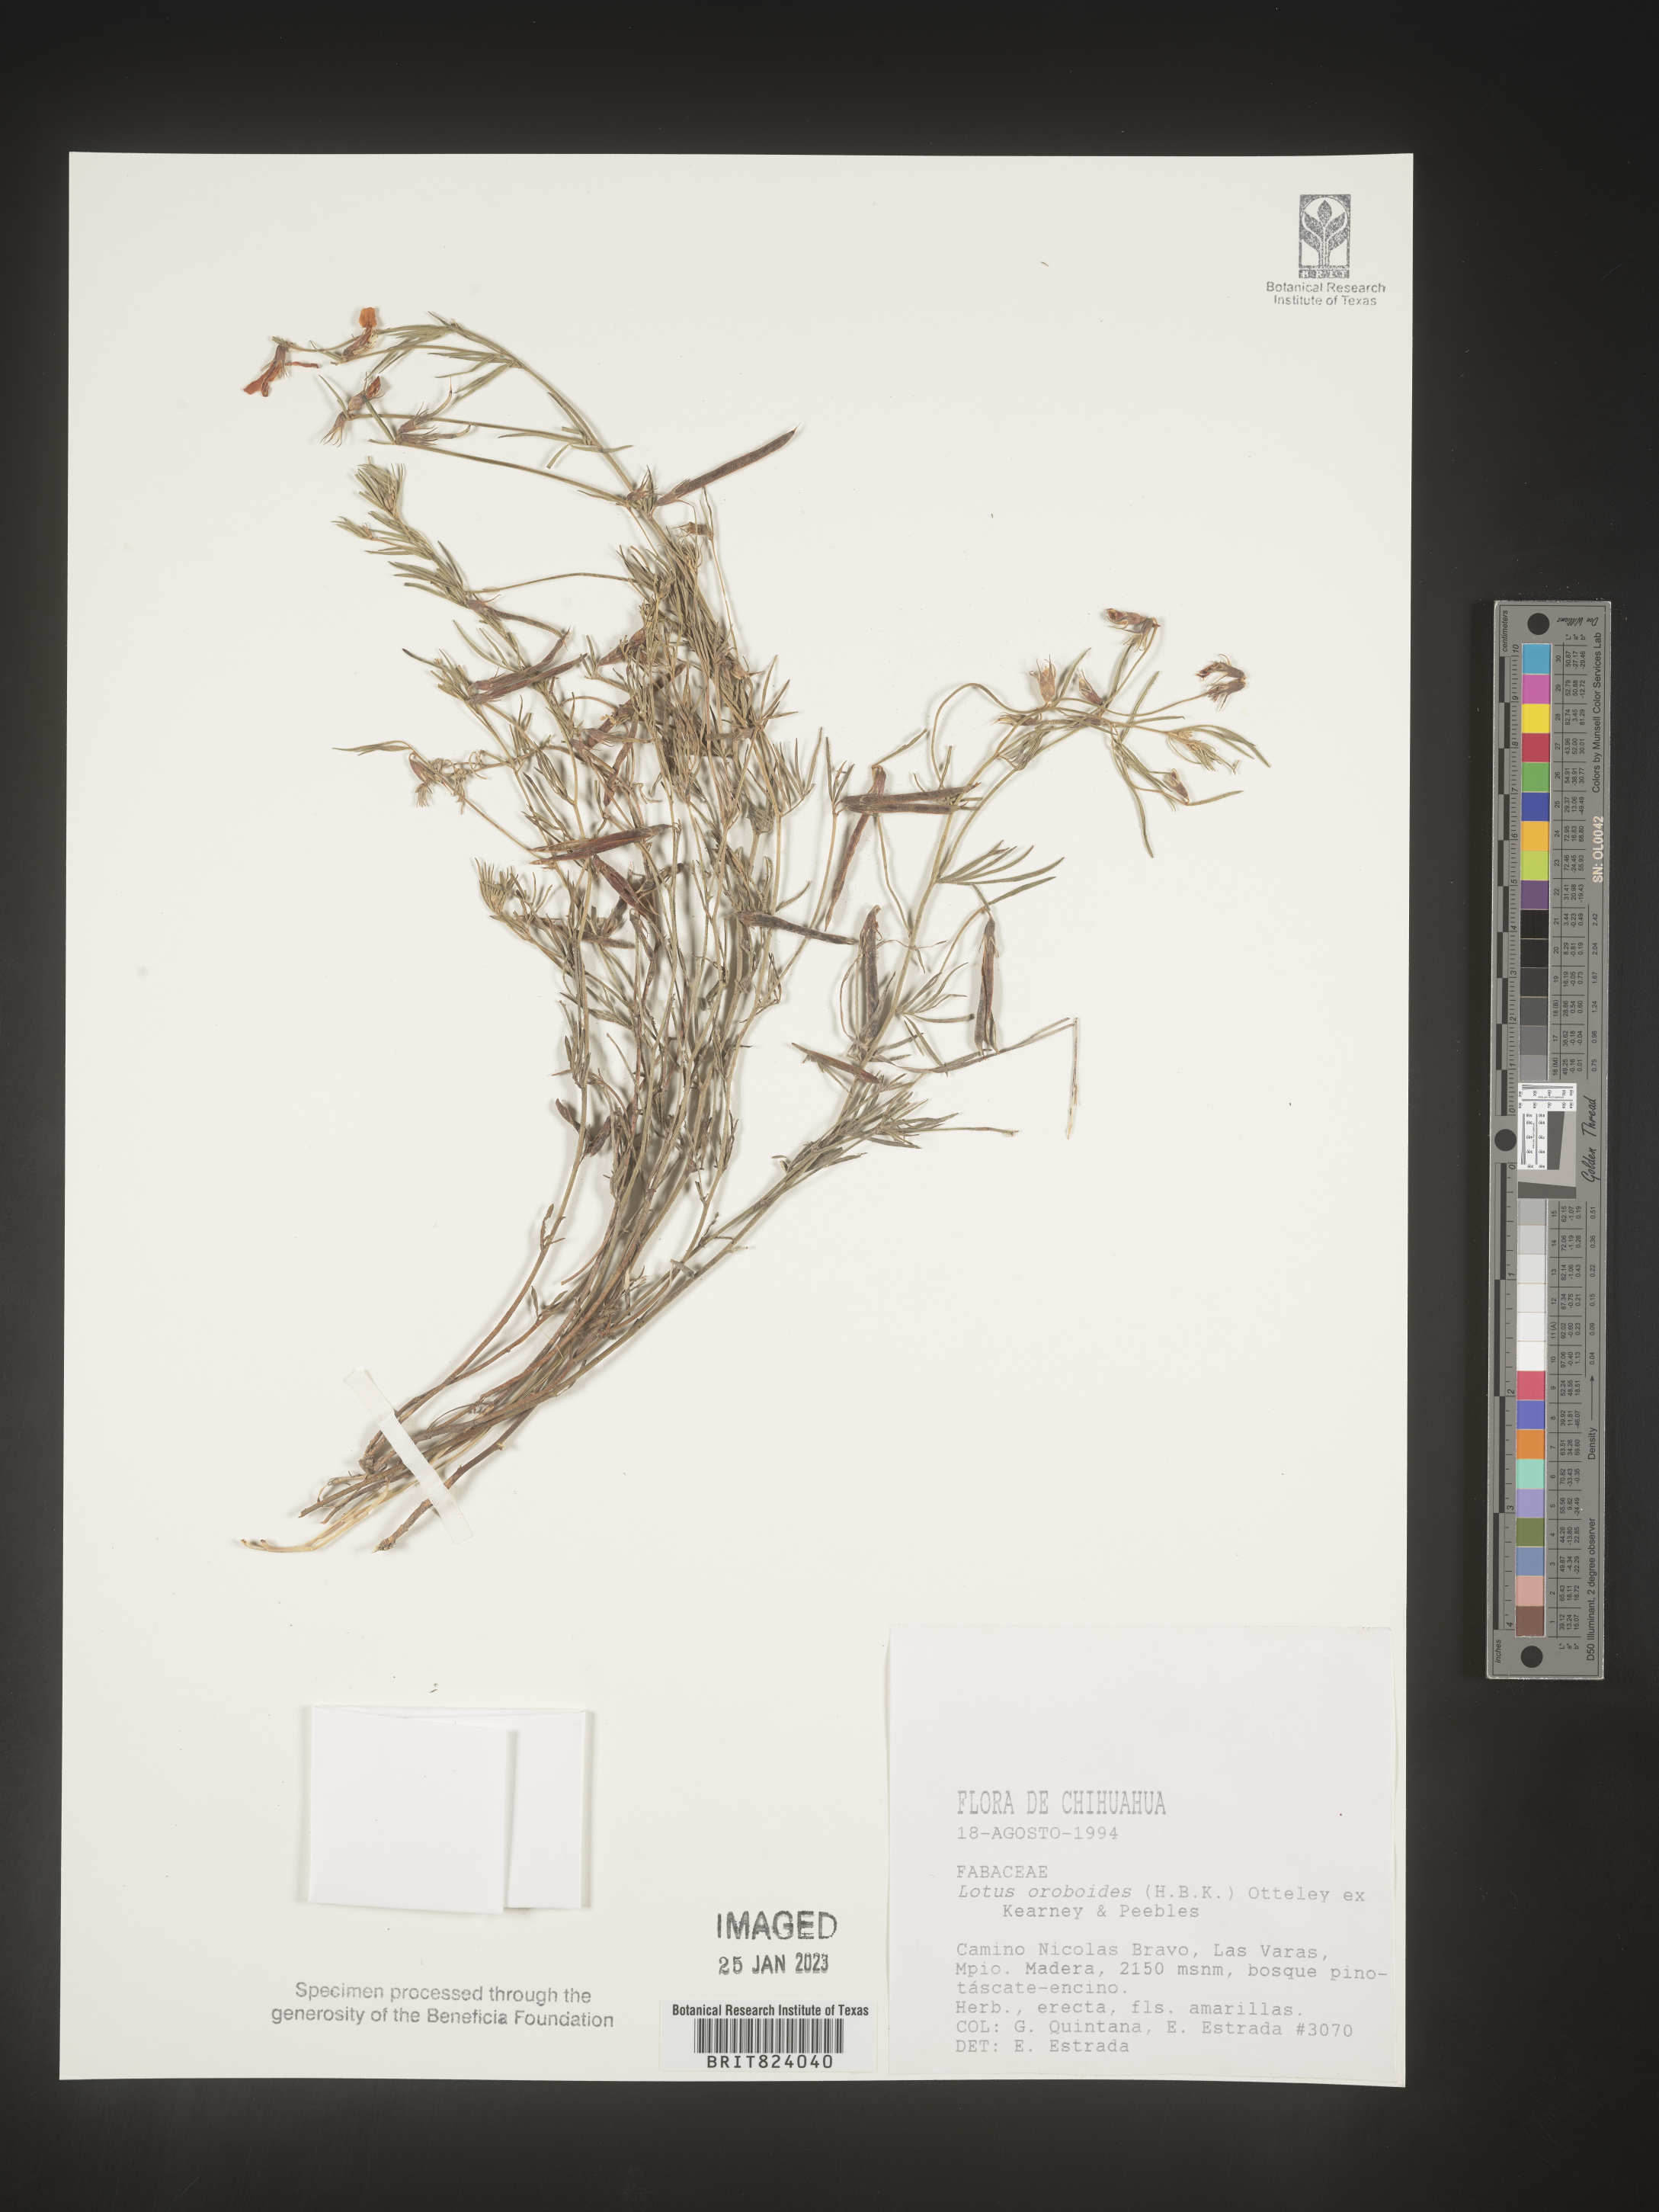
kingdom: Plantae
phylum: Tracheophyta
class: Magnoliopsida
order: Fabales
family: Fabaceae
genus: Lotus
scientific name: Lotus
